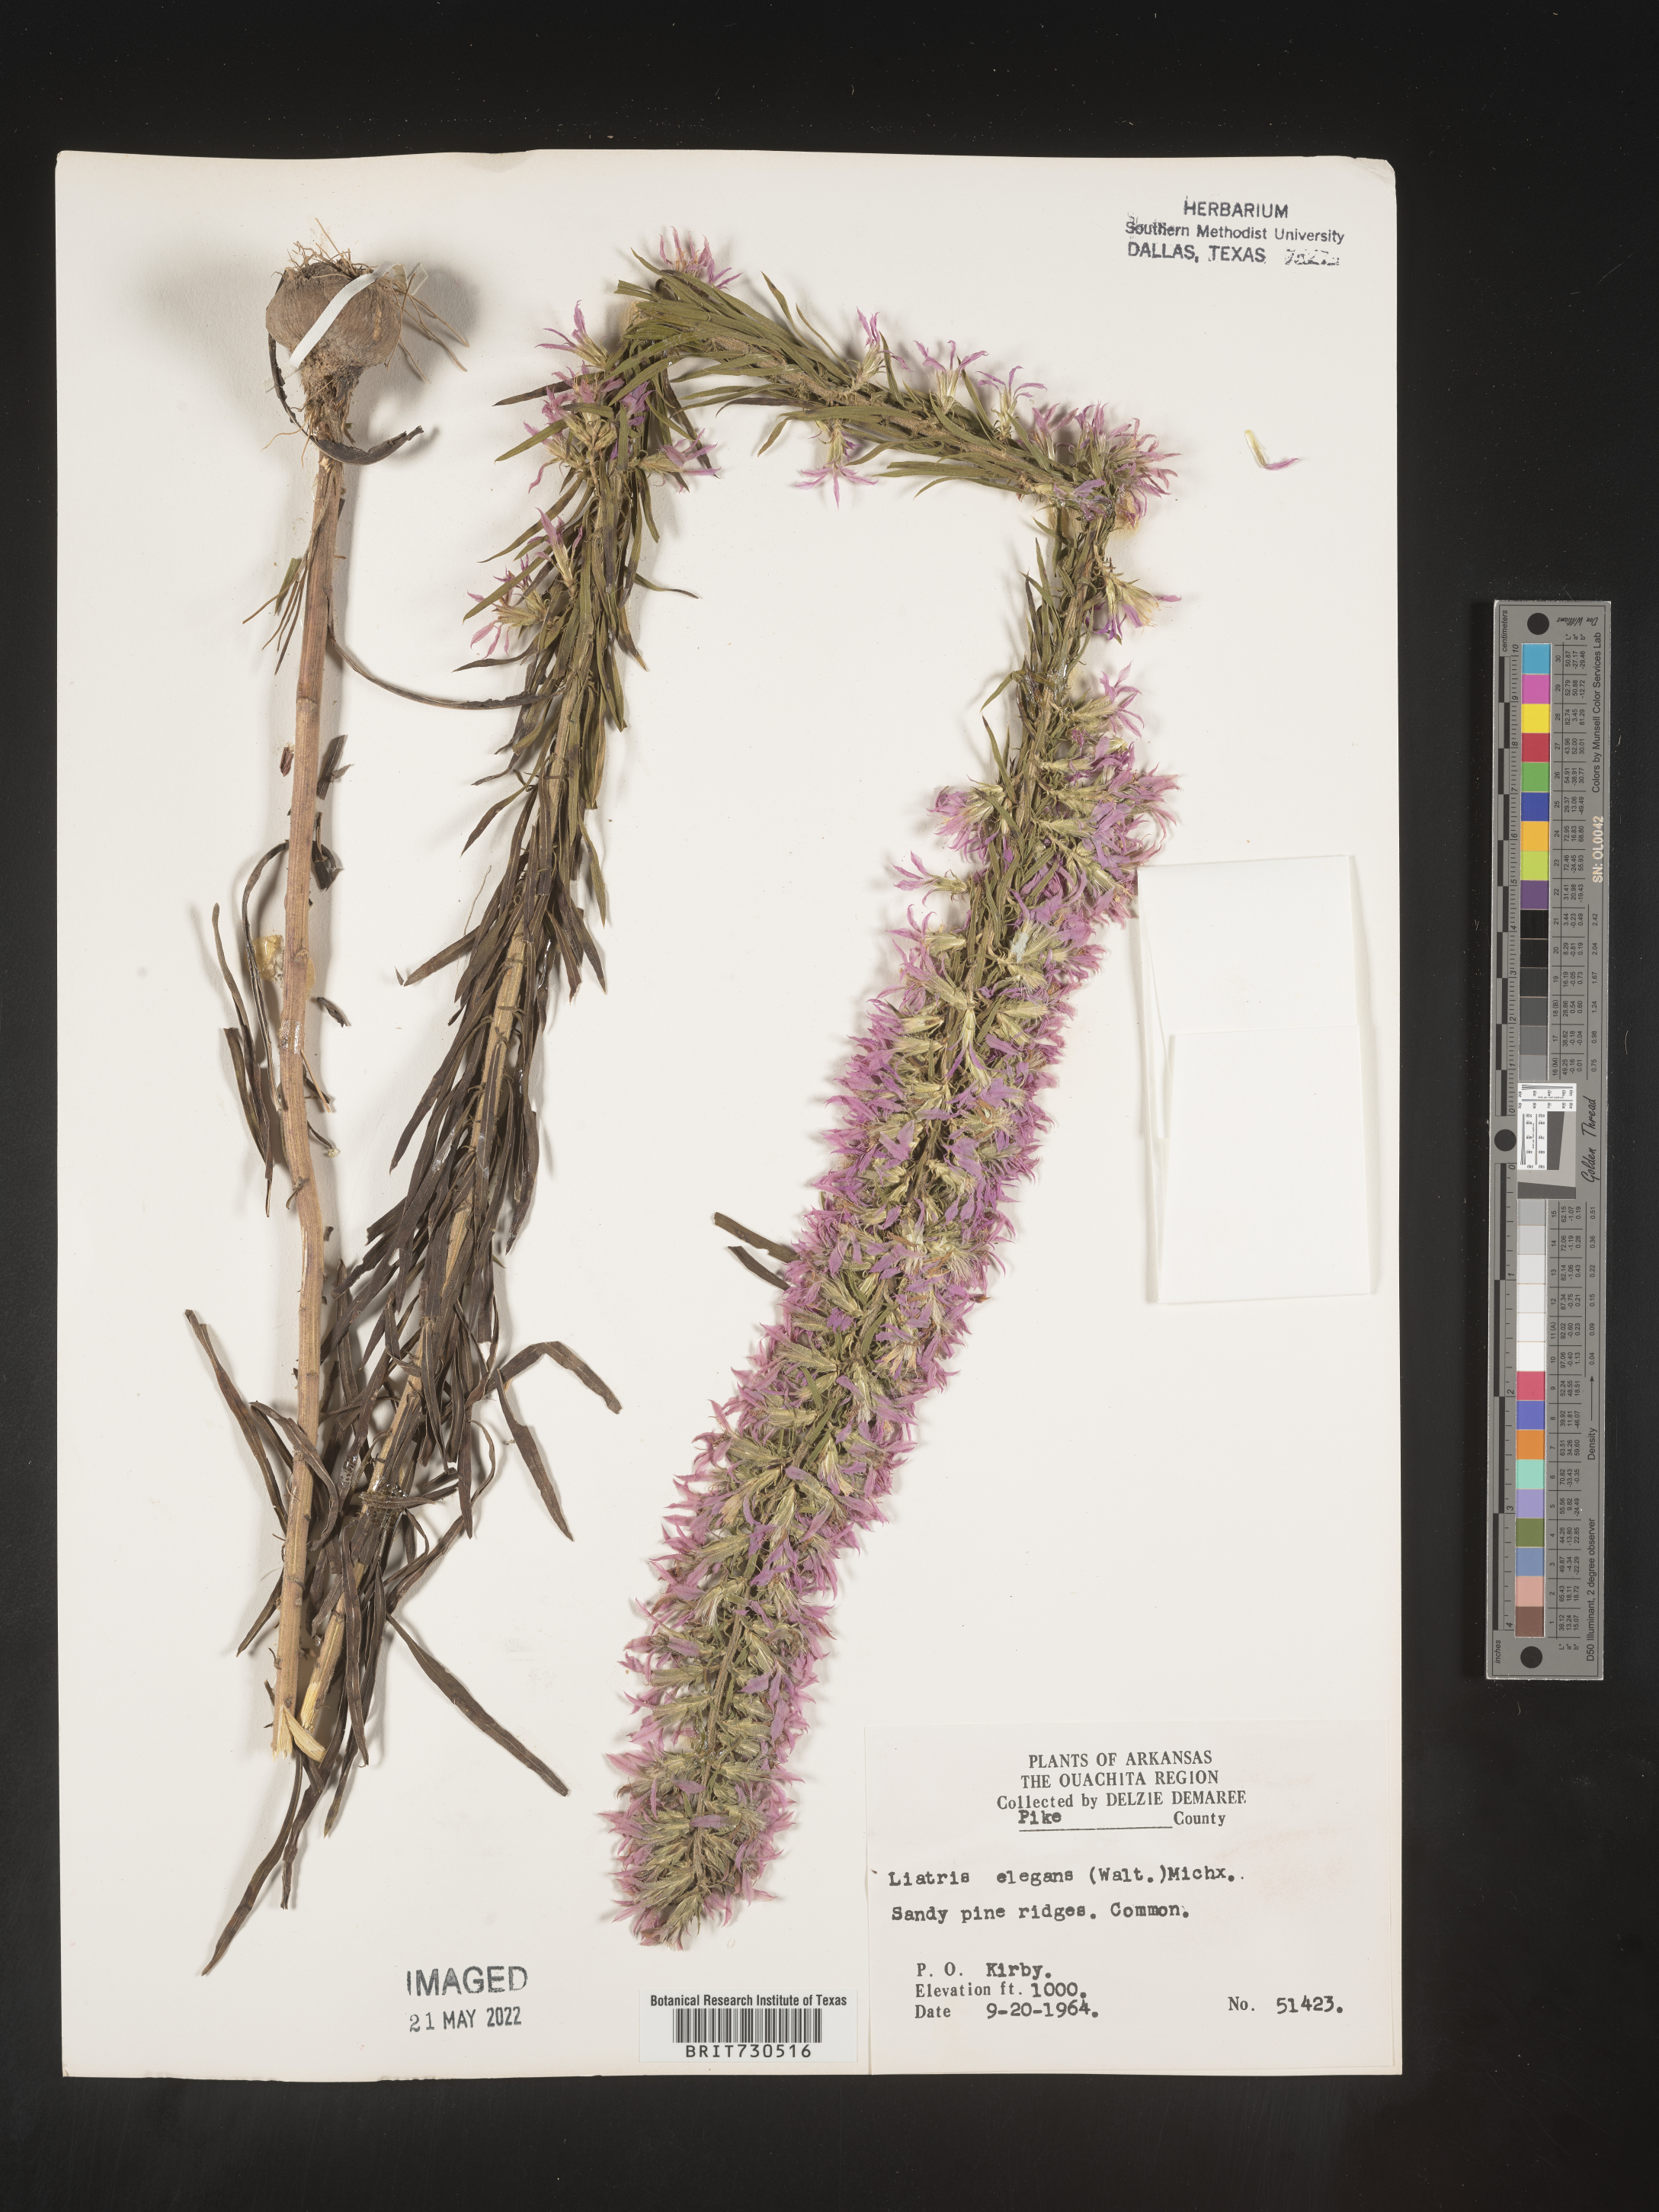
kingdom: Plantae
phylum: Tracheophyta
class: Magnoliopsida
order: Asterales
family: Asteraceae
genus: Liatris
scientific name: Liatris elegans
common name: Pinkscale gayfeather
